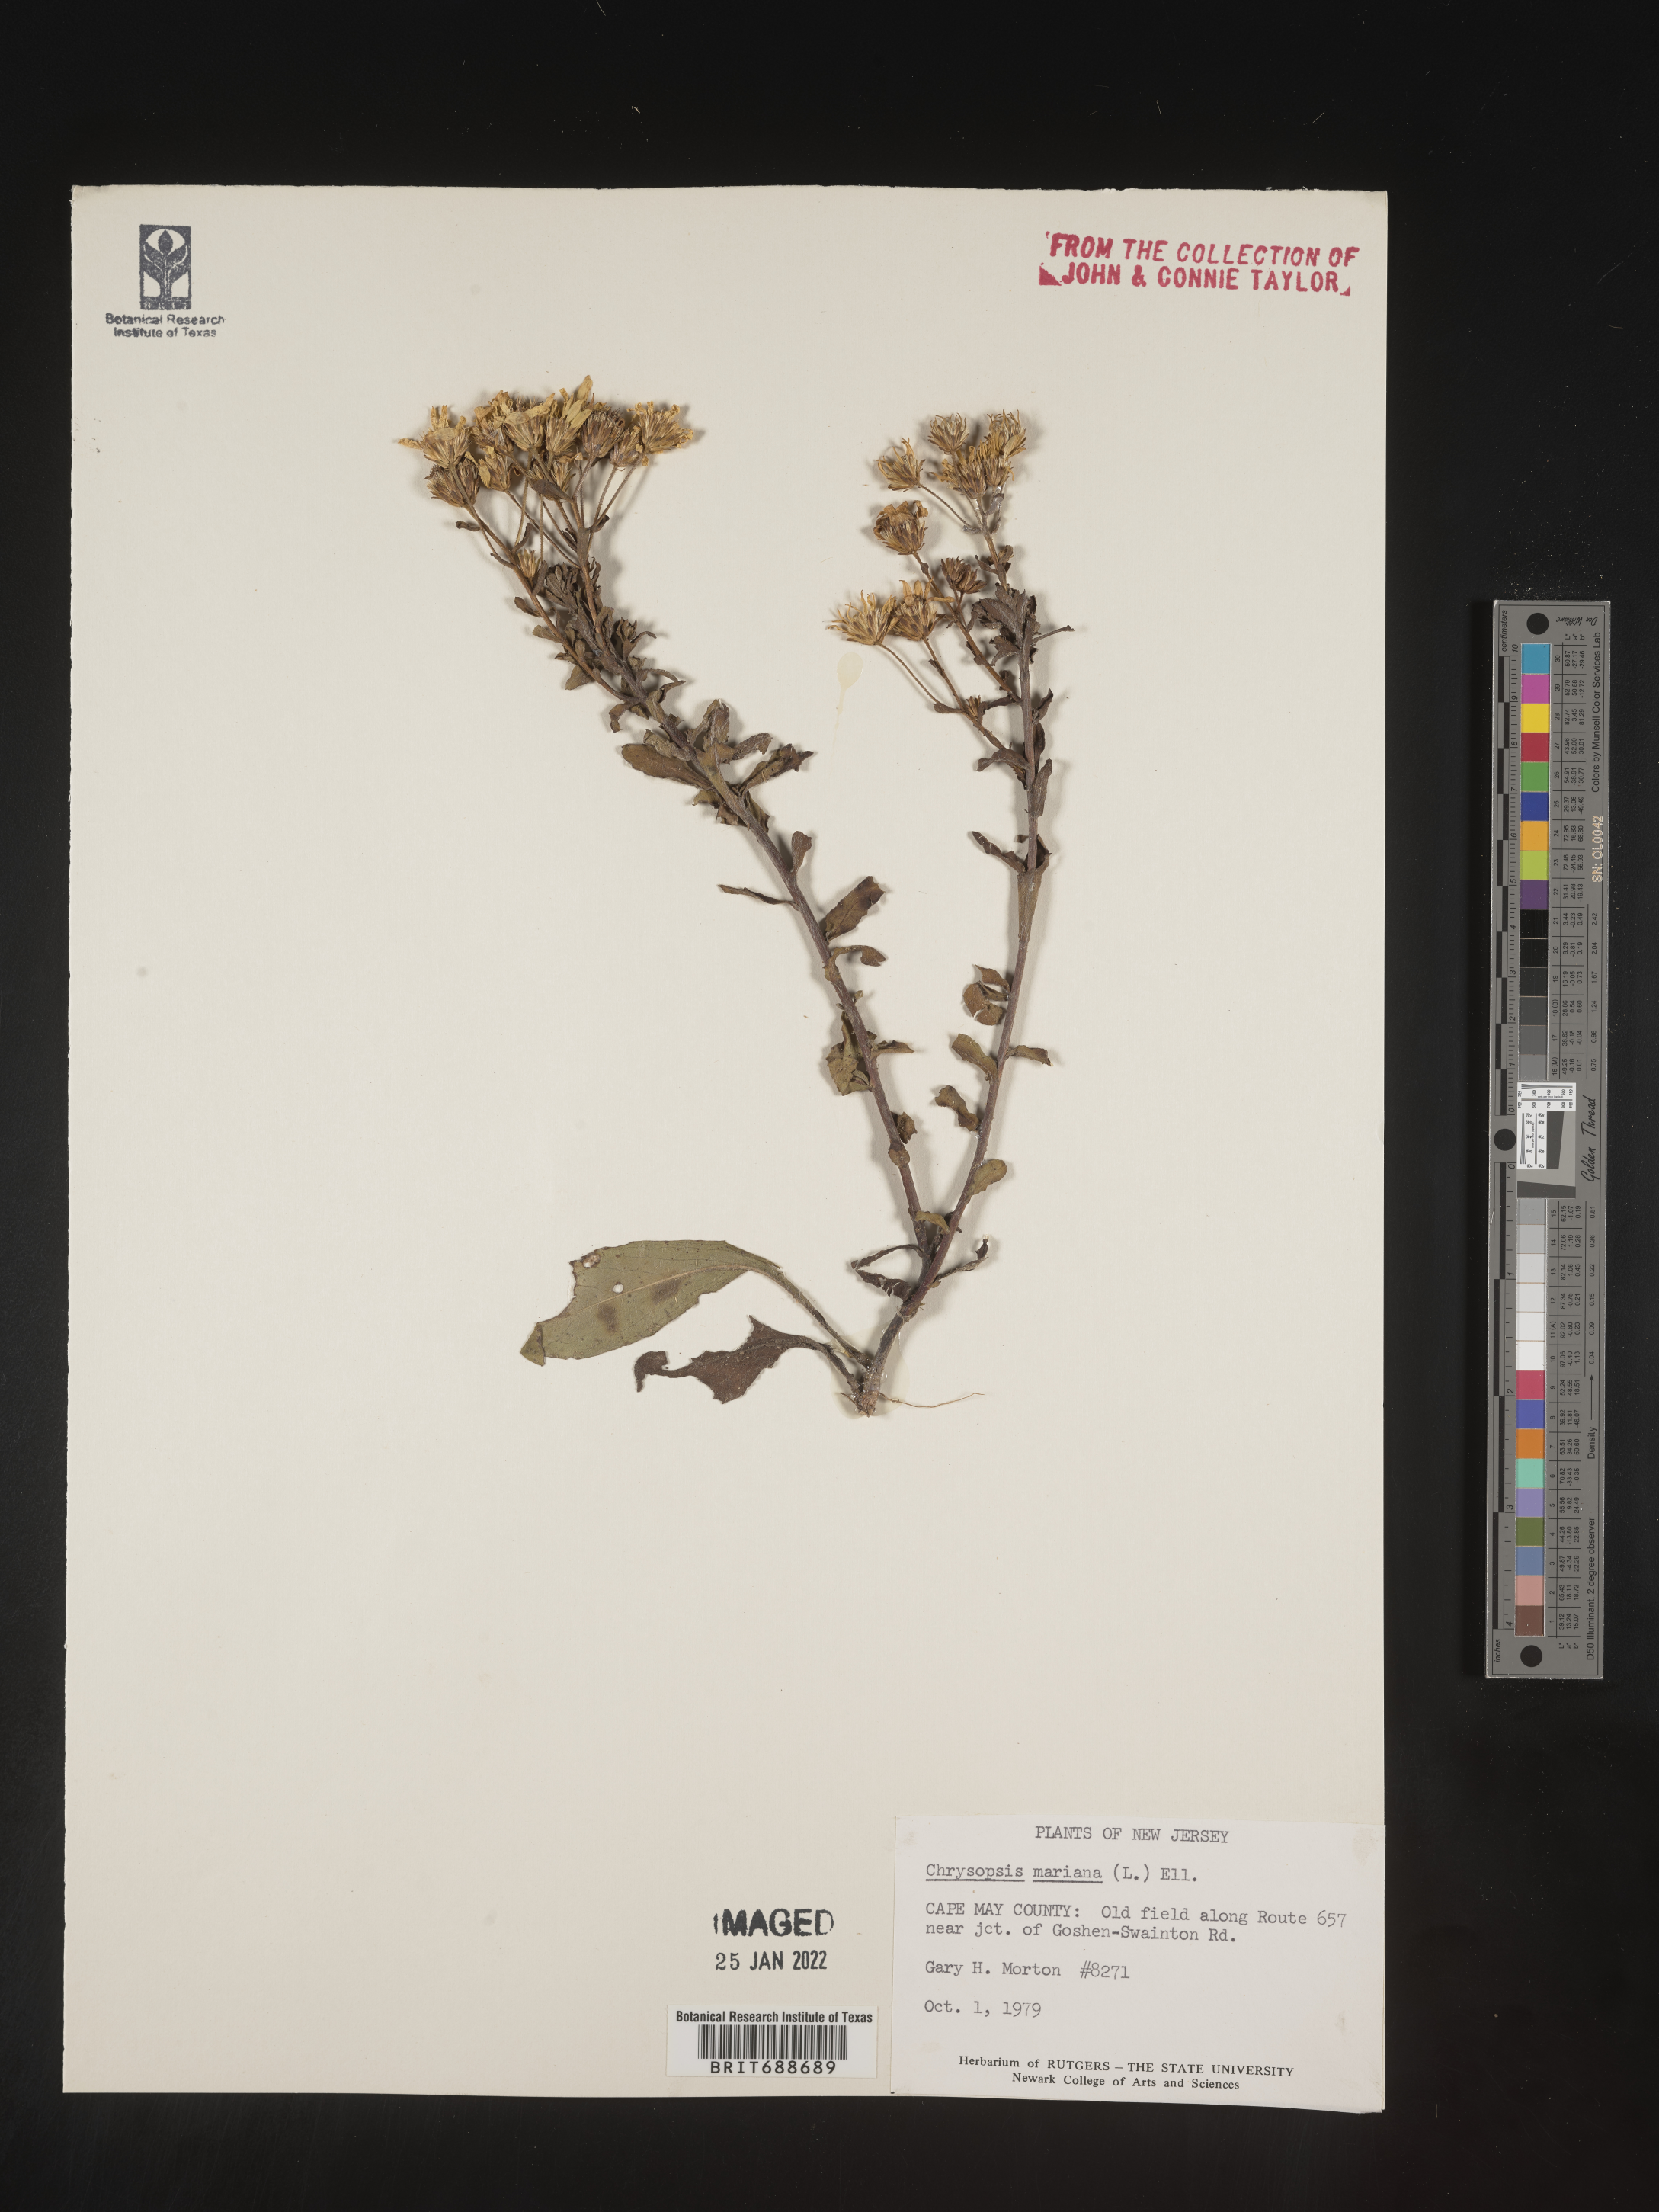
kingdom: Plantae
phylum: Tracheophyta
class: Magnoliopsida
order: Asterales
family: Asteraceae
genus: Chrysopsis
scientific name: Chrysopsis mariana
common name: Maryland golden-aster
